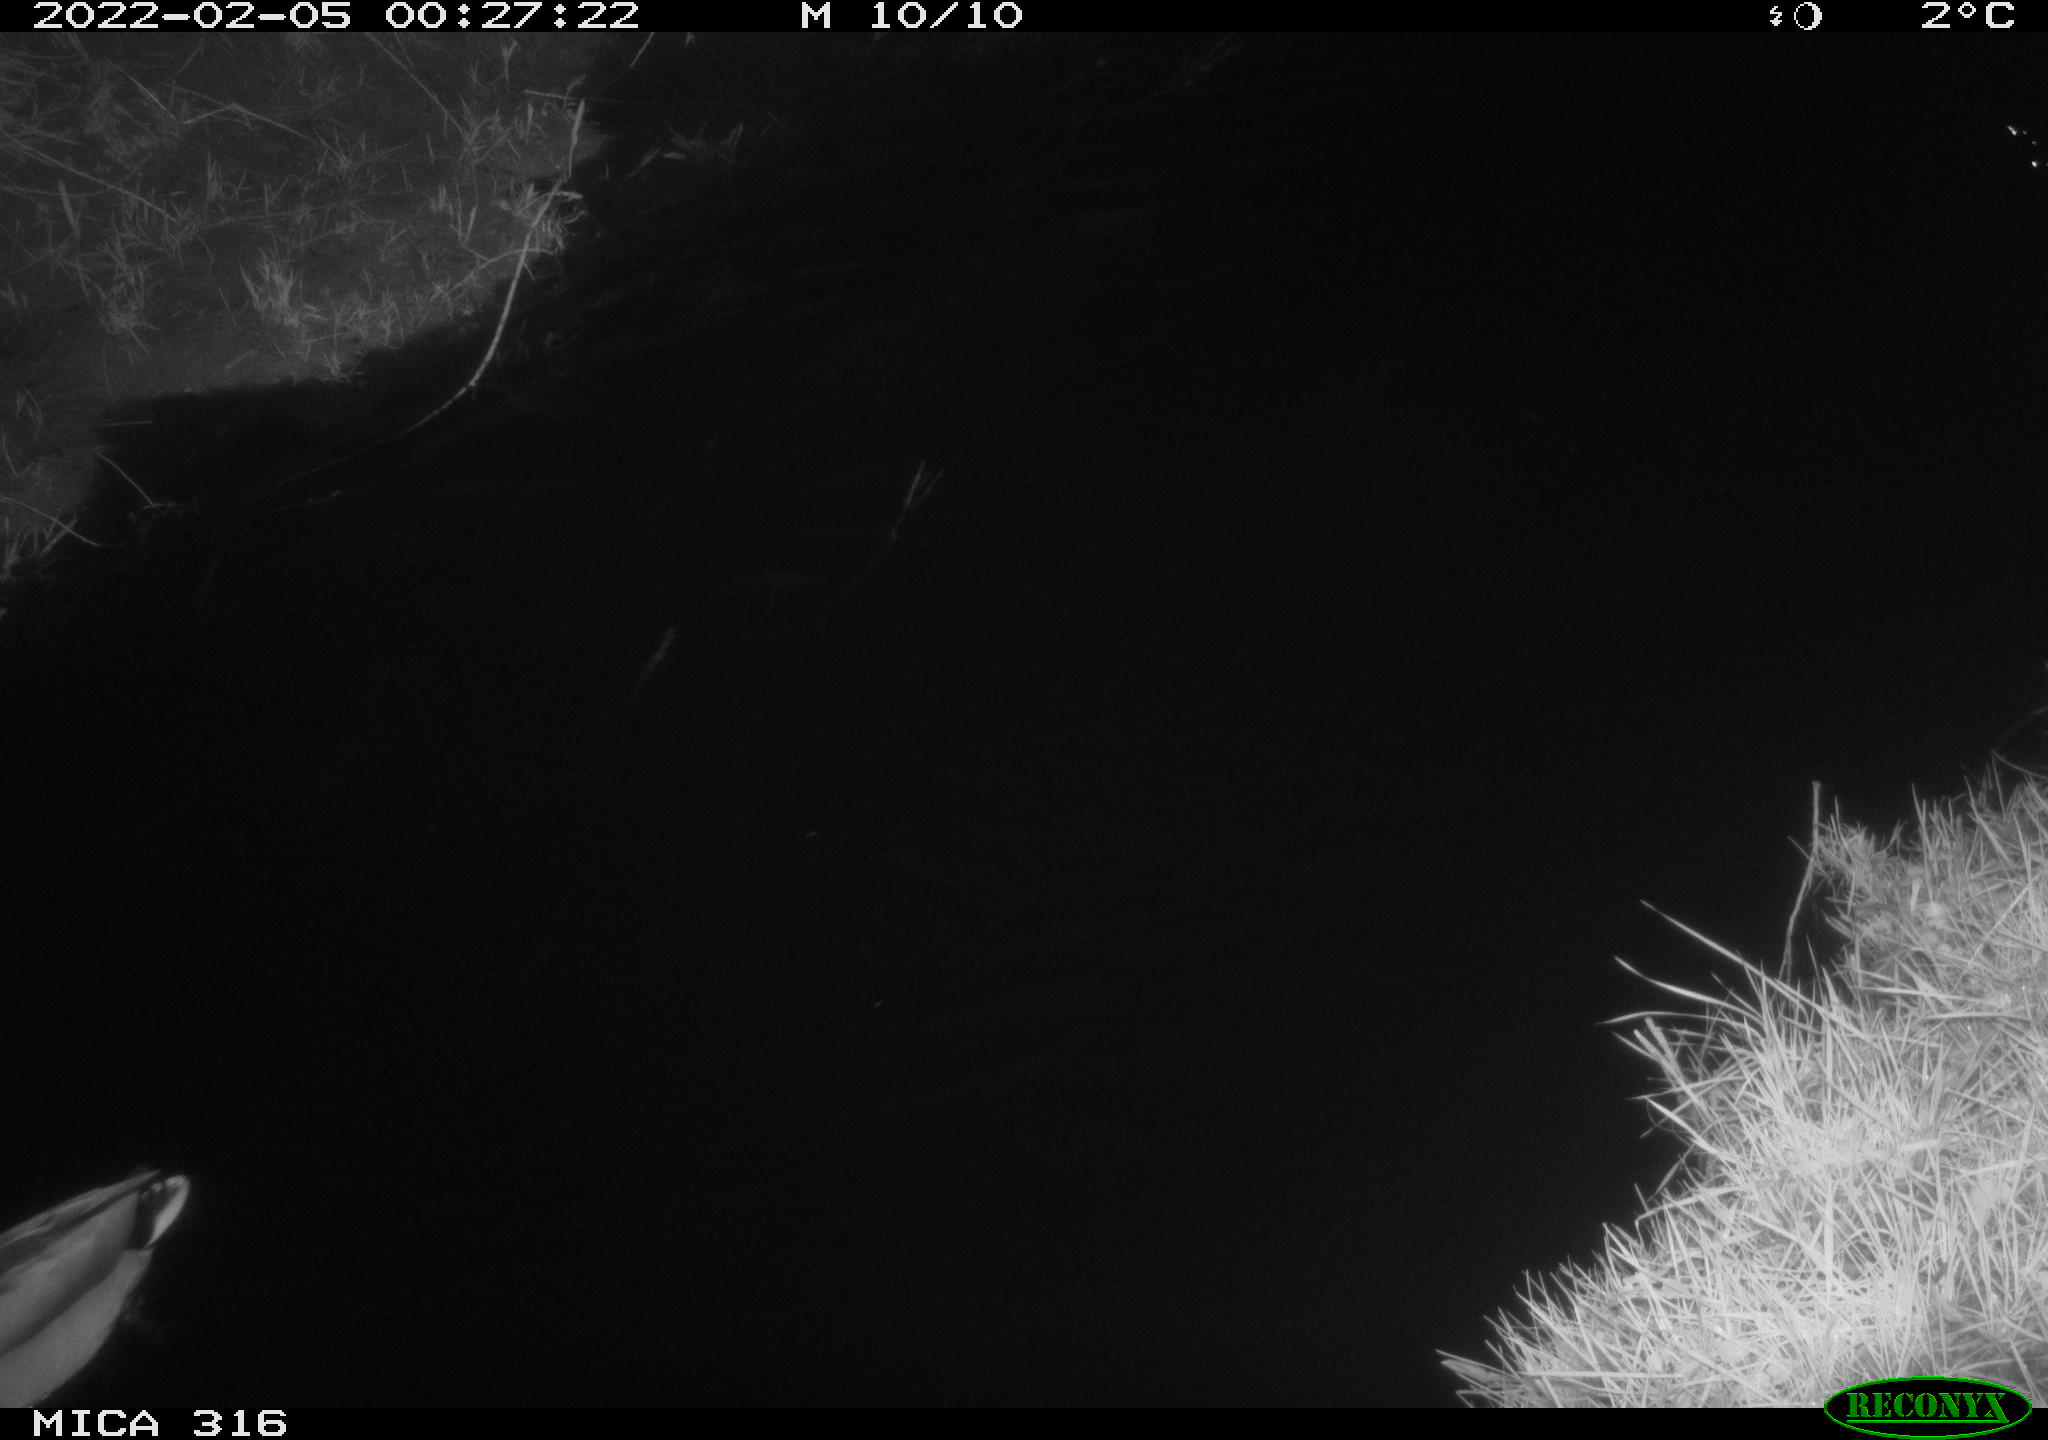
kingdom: Animalia
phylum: Chordata
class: Aves
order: Anseriformes
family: Anatidae
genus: Anas
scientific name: Anas platyrhynchos
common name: Mallard
